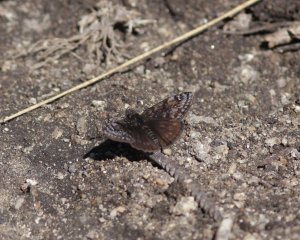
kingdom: Animalia
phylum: Arthropoda
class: Insecta
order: Lepidoptera
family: Hesperiidae
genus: Erynnis
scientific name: Erynnis pacuvius
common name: Pacuvius Duskywing
